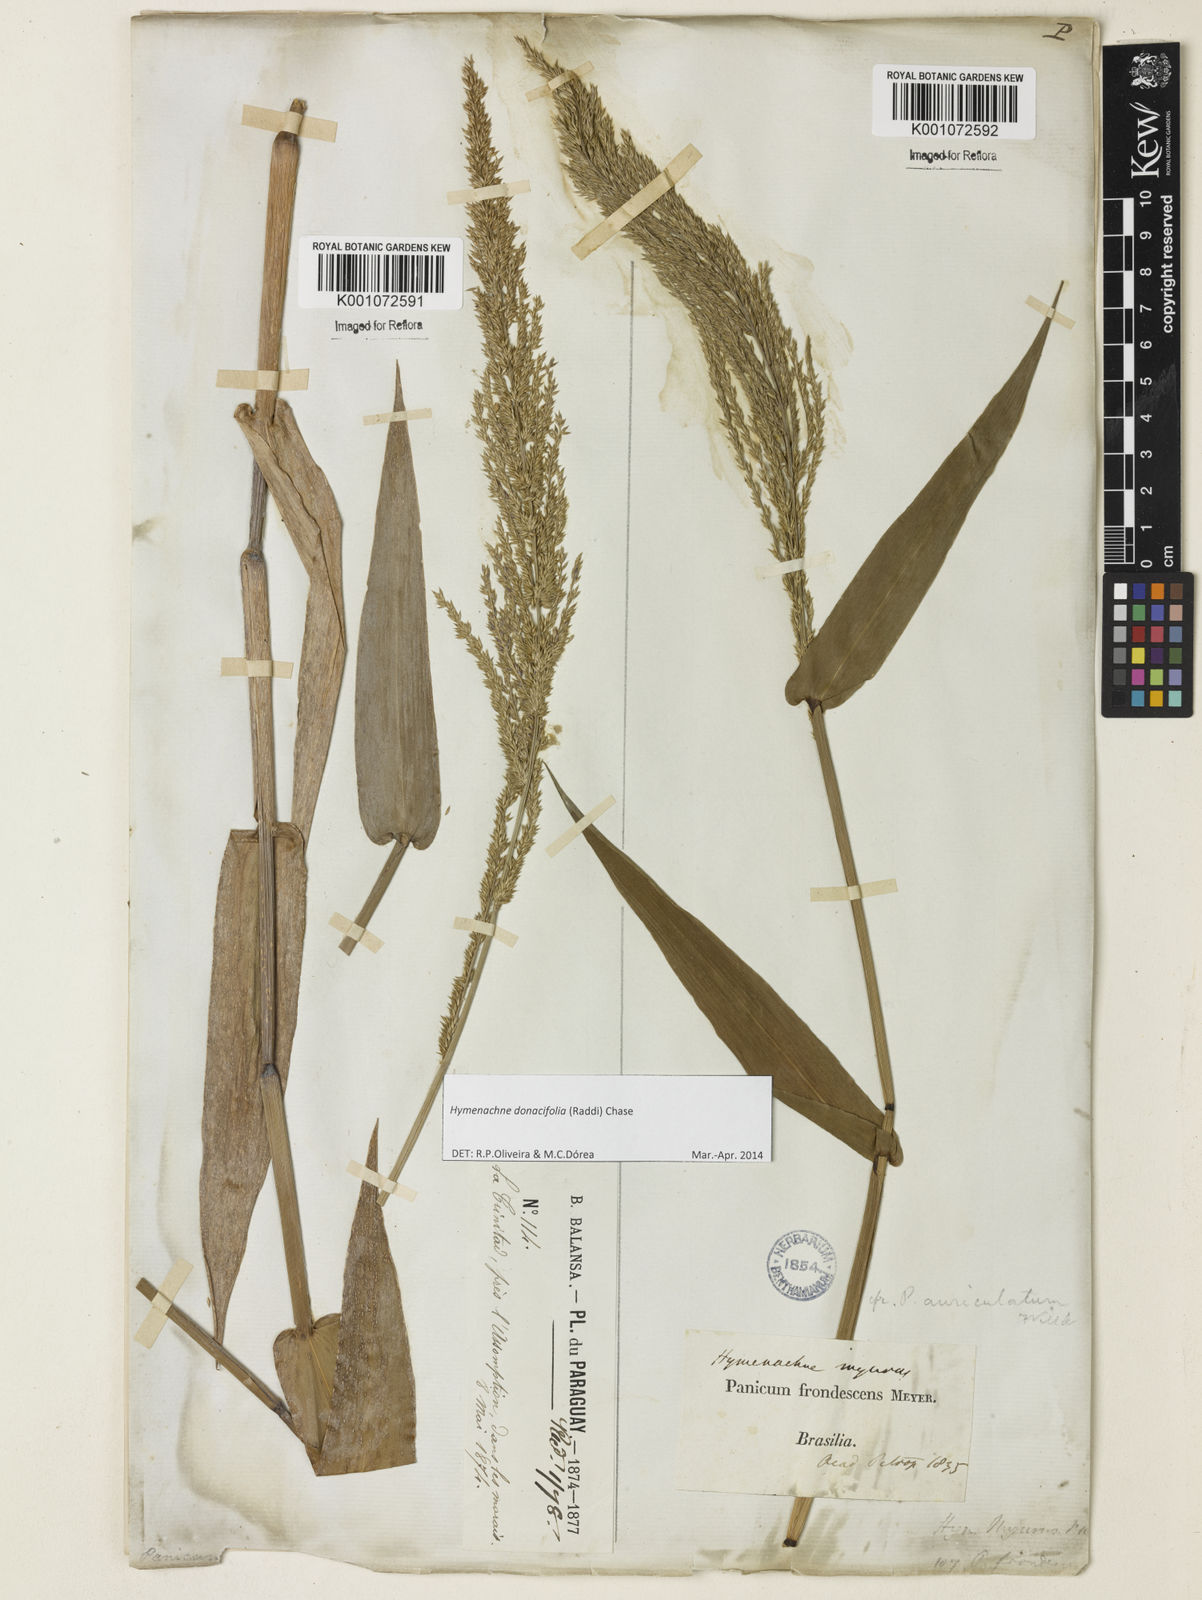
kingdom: Plantae
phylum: Tracheophyta
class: Liliopsida
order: Poales
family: Poaceae
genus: Hymenachne
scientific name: Hymenachne donacifolia
